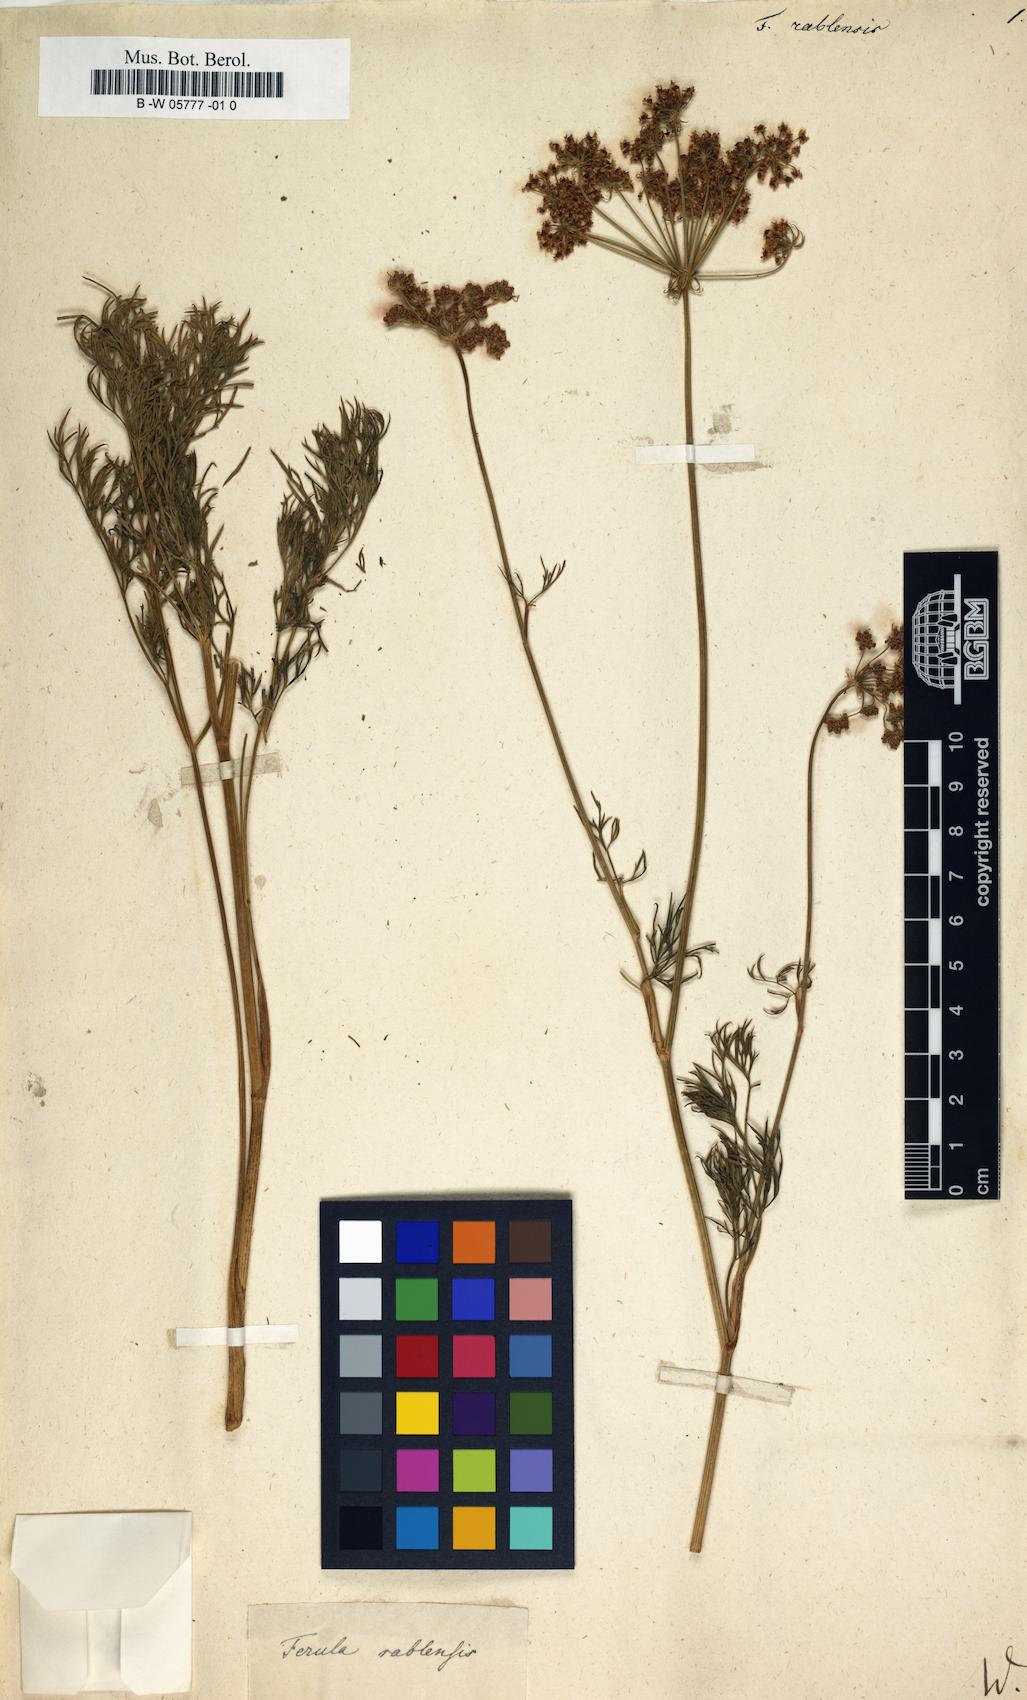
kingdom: Plantae
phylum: Tracheophyta
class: Magnoliopsida
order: Apiales
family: Apiaceae
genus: Peucedanum
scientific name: Peucedanum rablense
